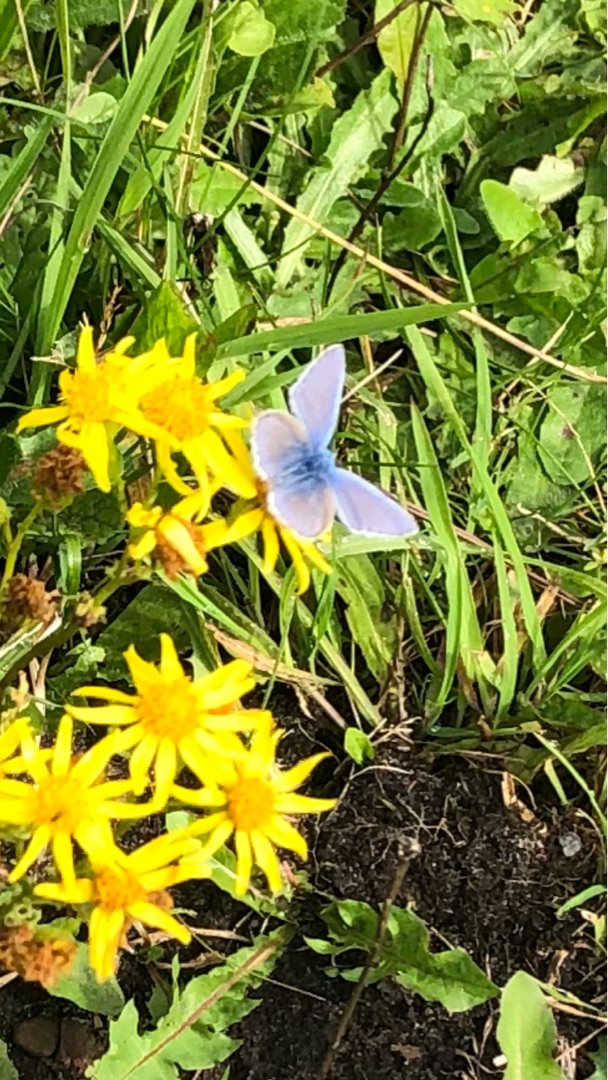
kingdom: Animalia
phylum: Arthropoda
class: Insecta
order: Lepidoptera
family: Lycaenidae
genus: Polyommatus
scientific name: Polyommatus icarus
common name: Almindelig blåfugl
